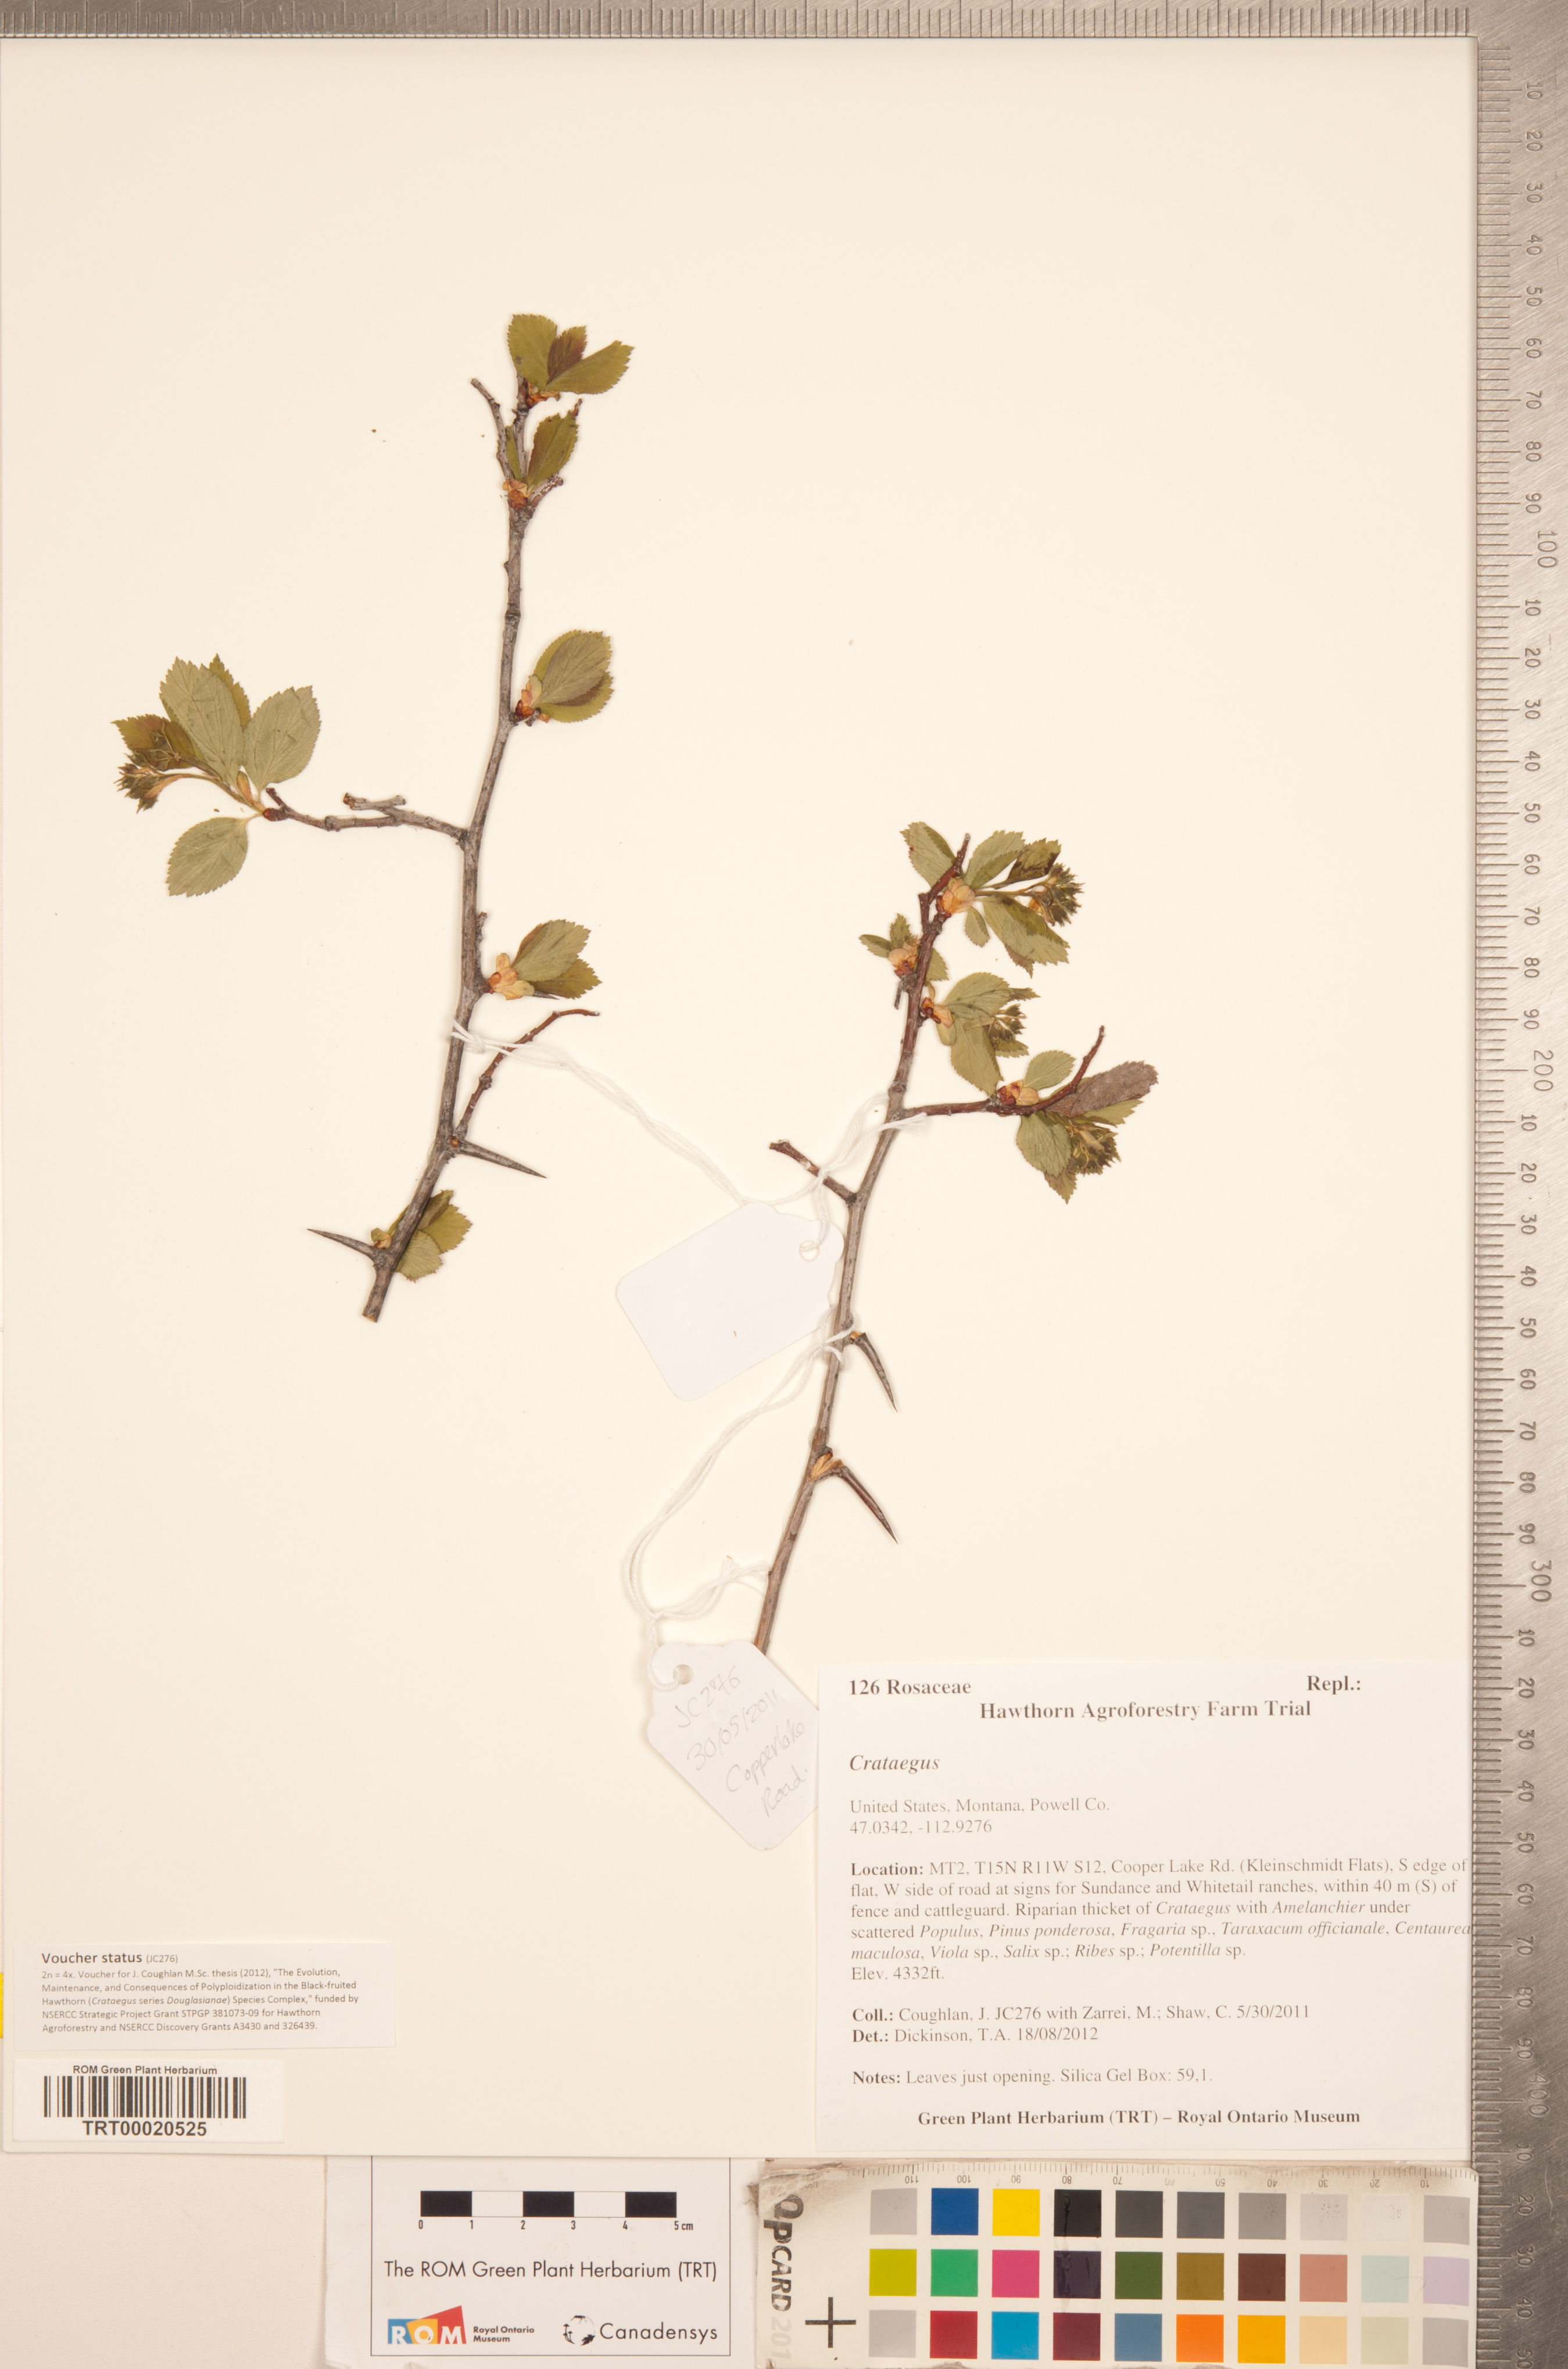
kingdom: Plantae
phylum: Tracheophyta
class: Magnoliopsida
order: Rosales
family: Rosaceae
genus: Crataegus
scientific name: Crataegus
